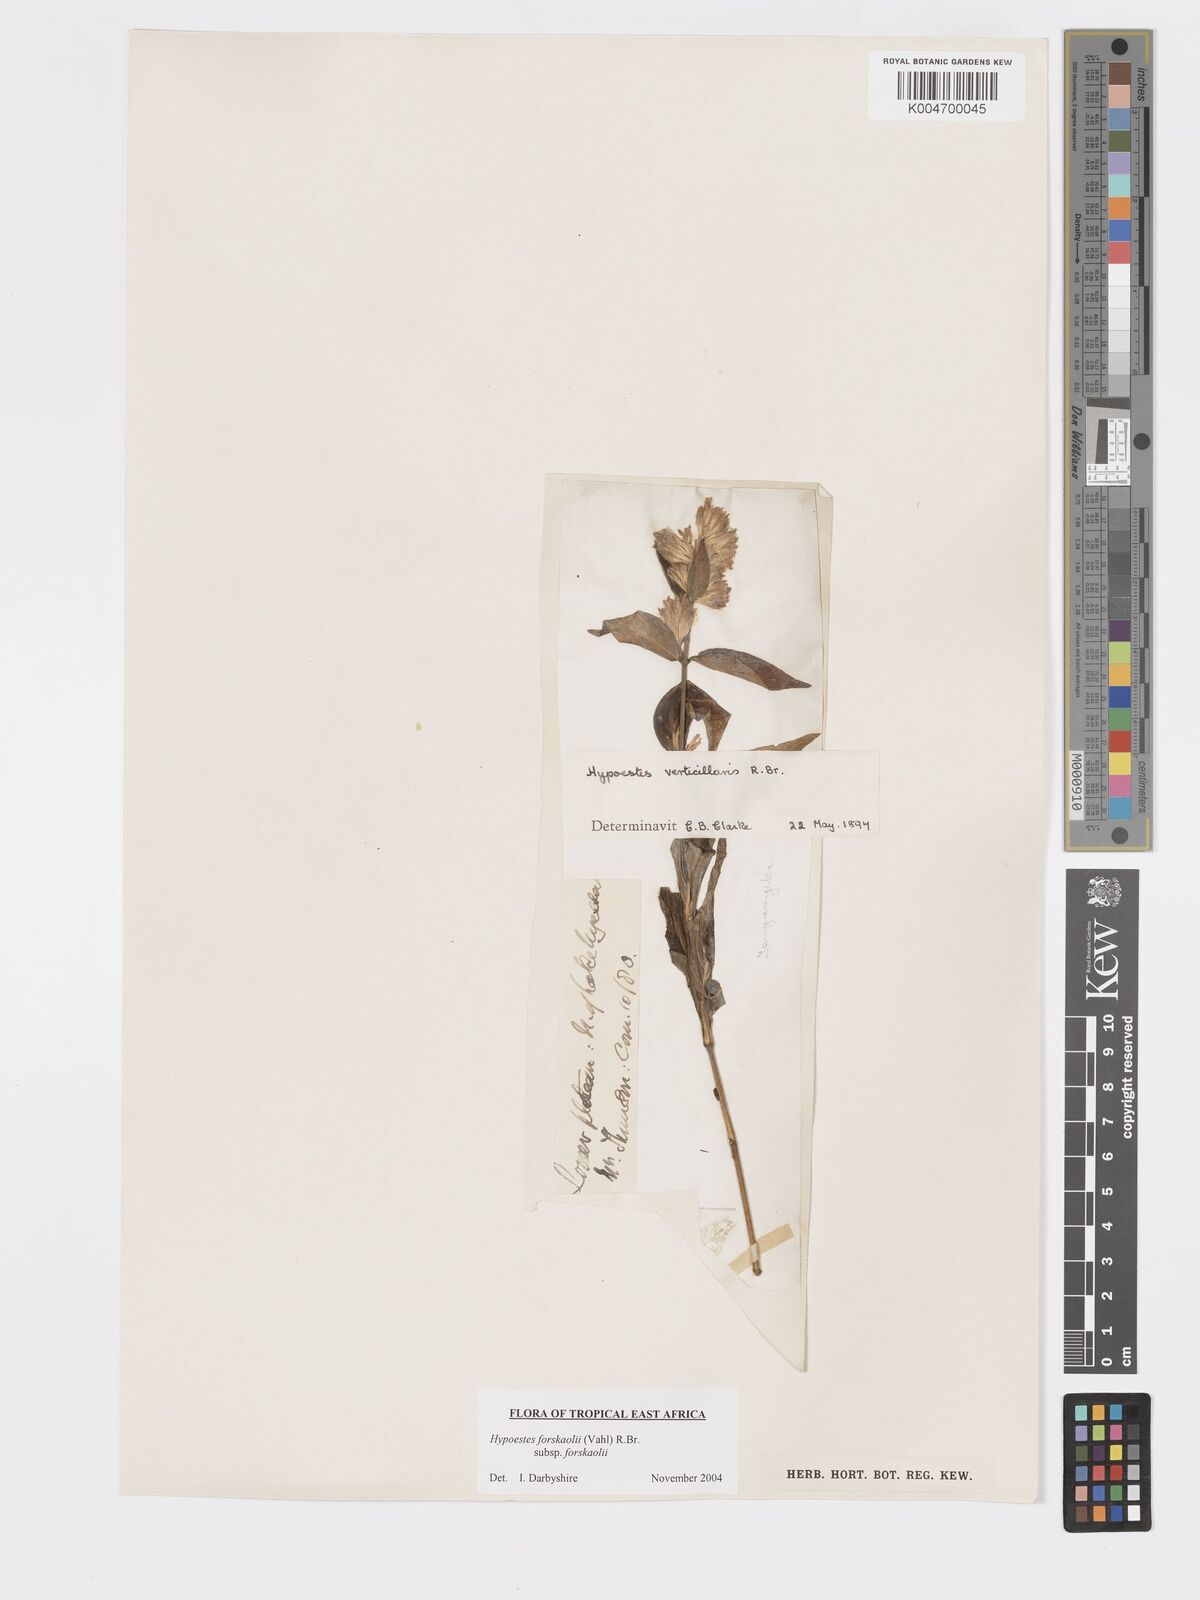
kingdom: Plantae
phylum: Tracheophyta
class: Magnoliopsida
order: Lamiales
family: Acanthaceae
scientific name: Acanthaceae
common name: Acanthaceae
